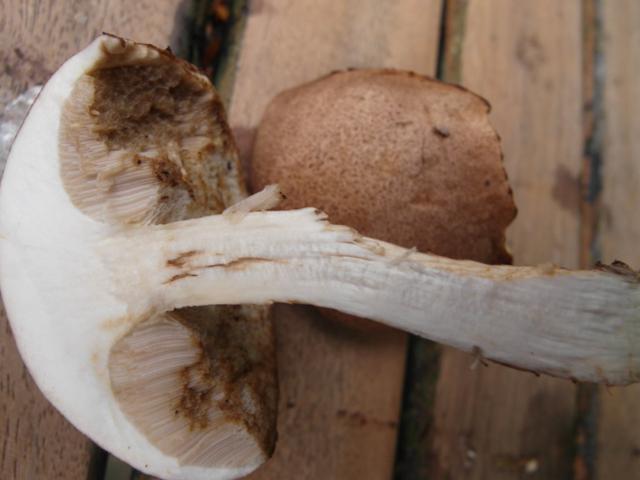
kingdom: Fungi
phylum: Basidiomycota
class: Agaricomycetes
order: Boletales
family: Boletaceae
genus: Leccinum
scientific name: Leccinum scabrum
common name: hvid skælrørhat
